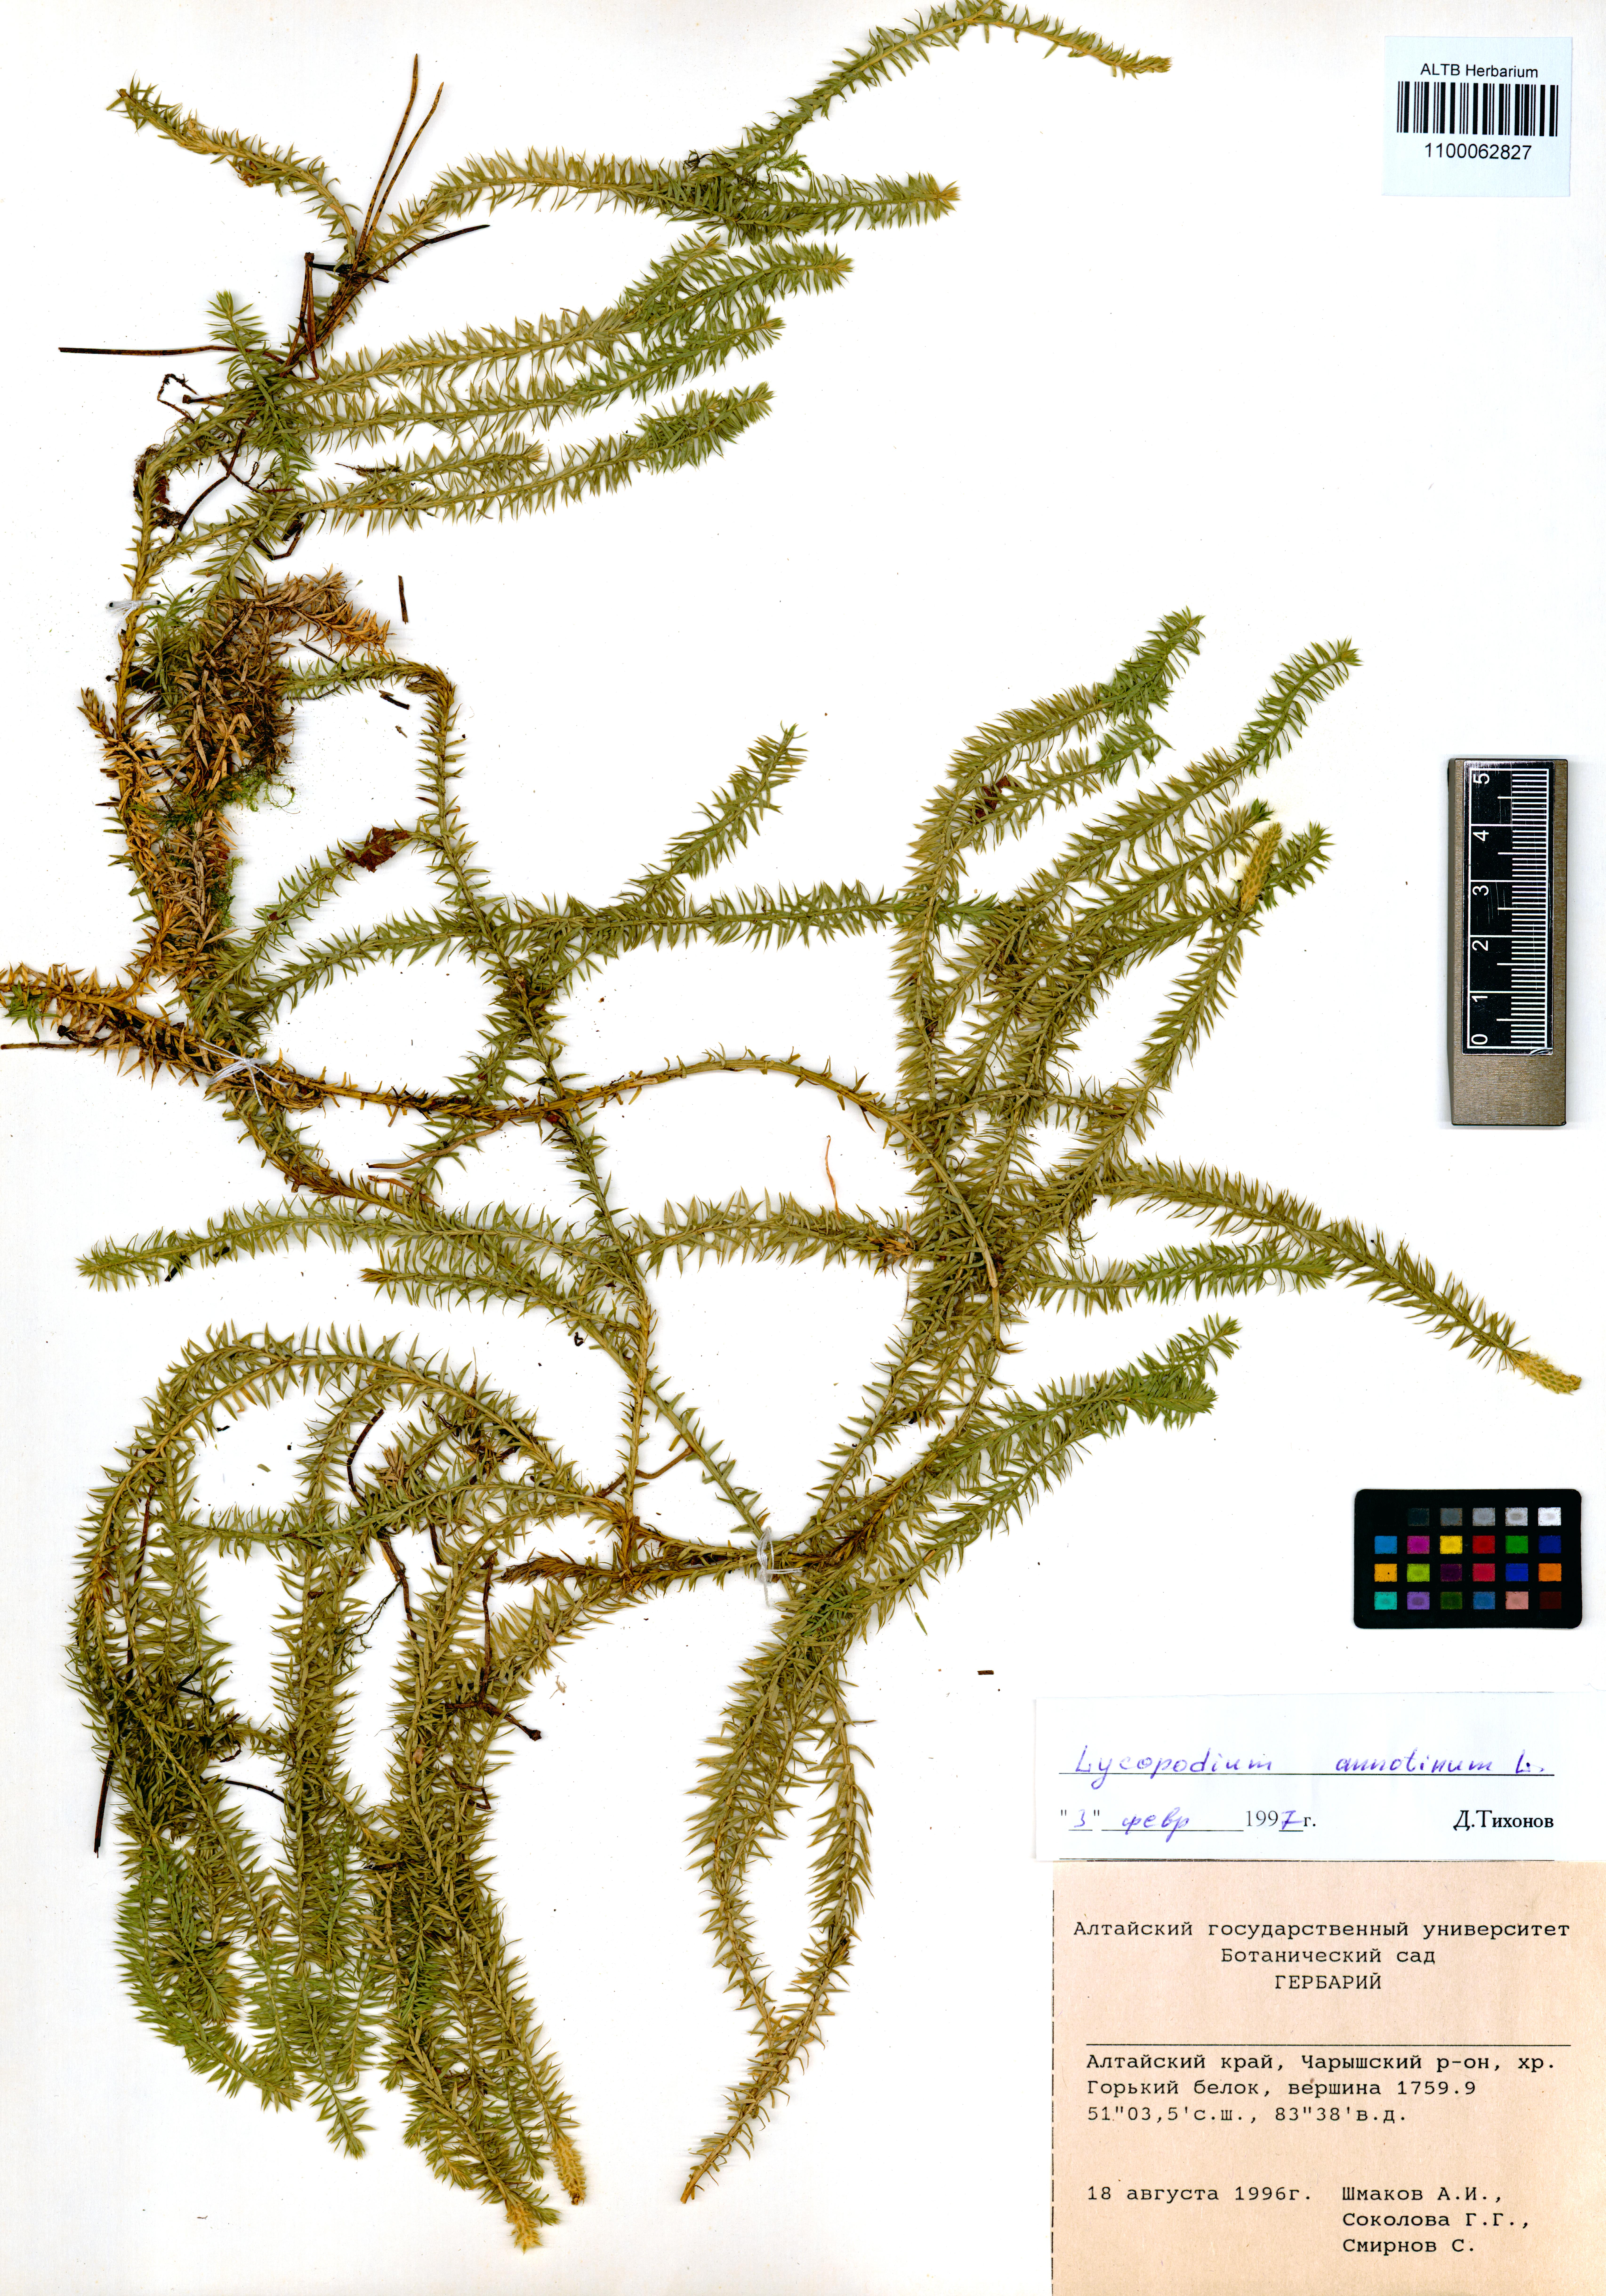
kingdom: Plantae
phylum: Tracheophyta
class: Lycopodiopsida
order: Lycopodiales
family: Lycopodiaceae
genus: Spinulum
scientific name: Spinulum annotinum
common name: Interrupted club-moss
